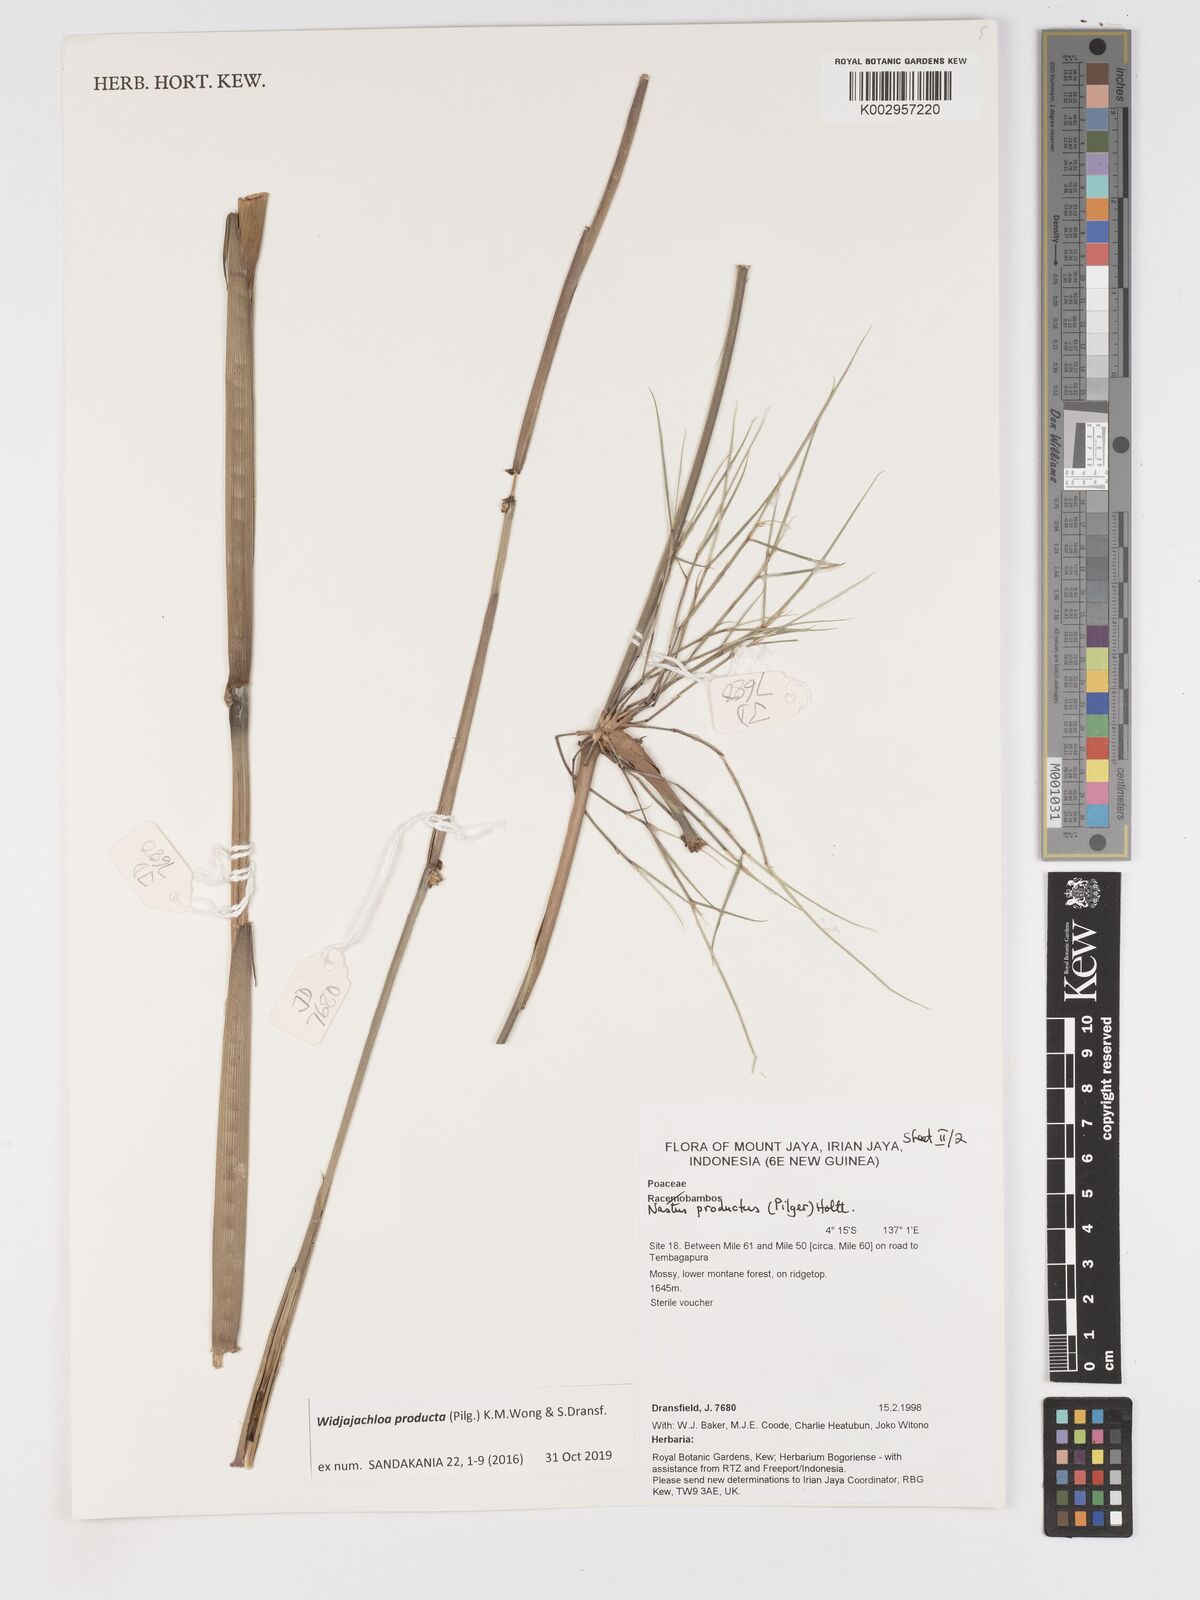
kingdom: Plantae
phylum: Tracheophyta
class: Liliopsida
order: Poales
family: Poaceae
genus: Widjajachloa
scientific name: Widjajachloa producta
